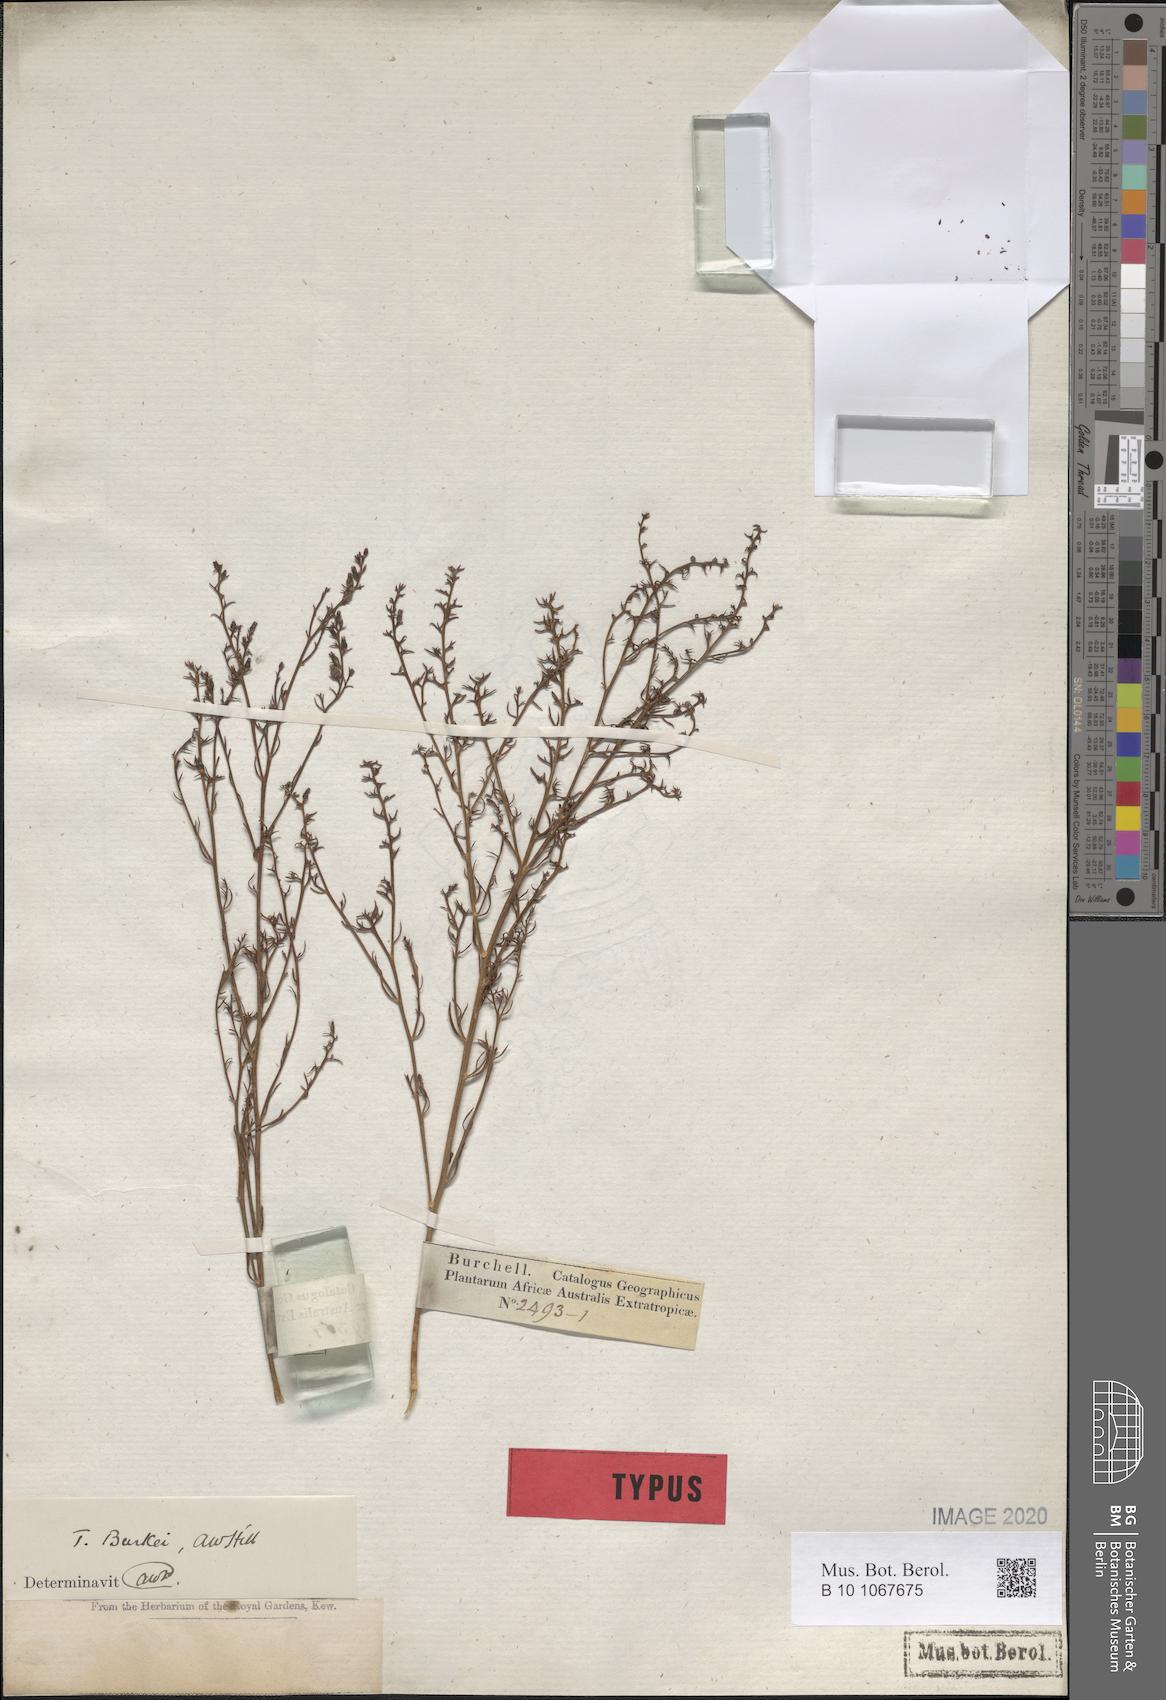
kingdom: Plantae
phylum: Tracheophyta
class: Magnoliopsida
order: Santalales
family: Thesiaceae
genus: Thesium
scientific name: Thesium resedoides
